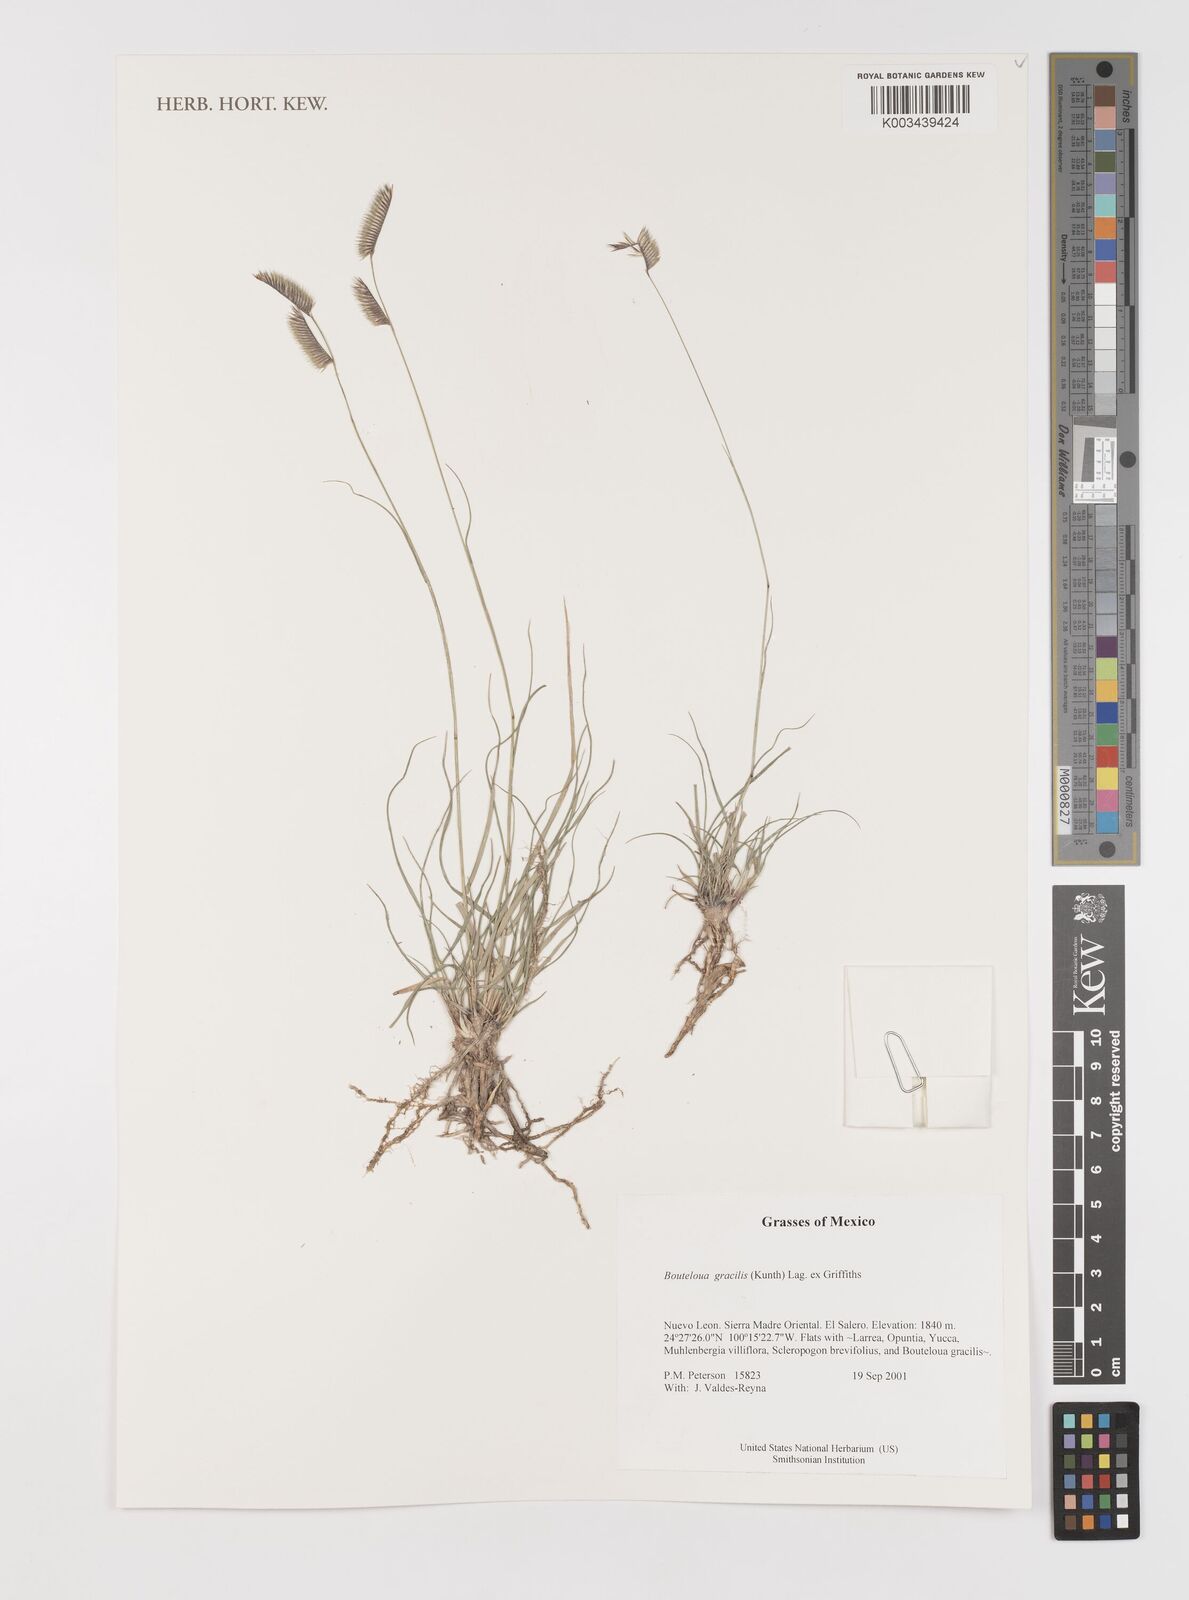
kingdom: Plantae
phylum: Tracheophyta
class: Liliopsida
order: Poales
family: Poaceae
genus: Bouteloua
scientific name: Bouteloua aristidoides
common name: Needle grama
